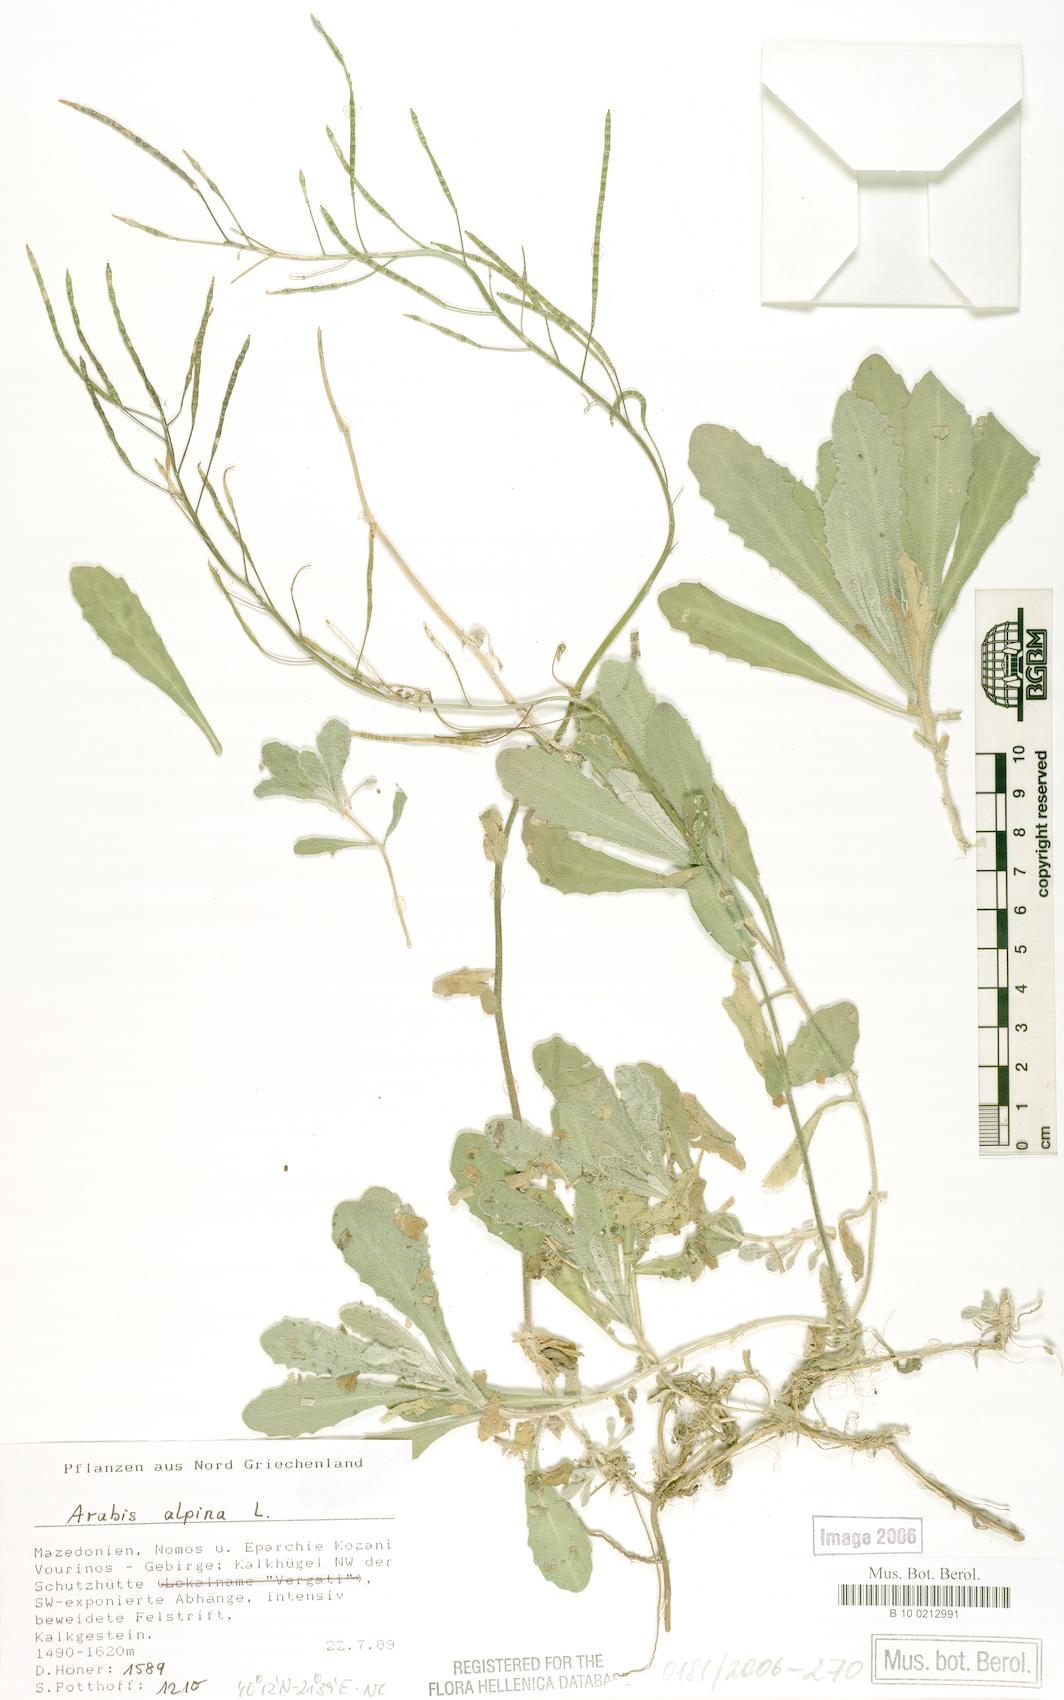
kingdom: Plantae
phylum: Tracheophyta
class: Magnoliopsida
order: Brassicales
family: Brassicaceae
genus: Arabis
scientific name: Arabis alpina
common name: Alpine rock-cress
